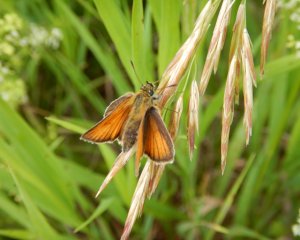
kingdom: Animalia
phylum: Arthropoda
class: Insecta
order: Lepidoptera
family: Hesperiidae
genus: Thymelicus
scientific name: Thymelicus lineola
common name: European Skipper
